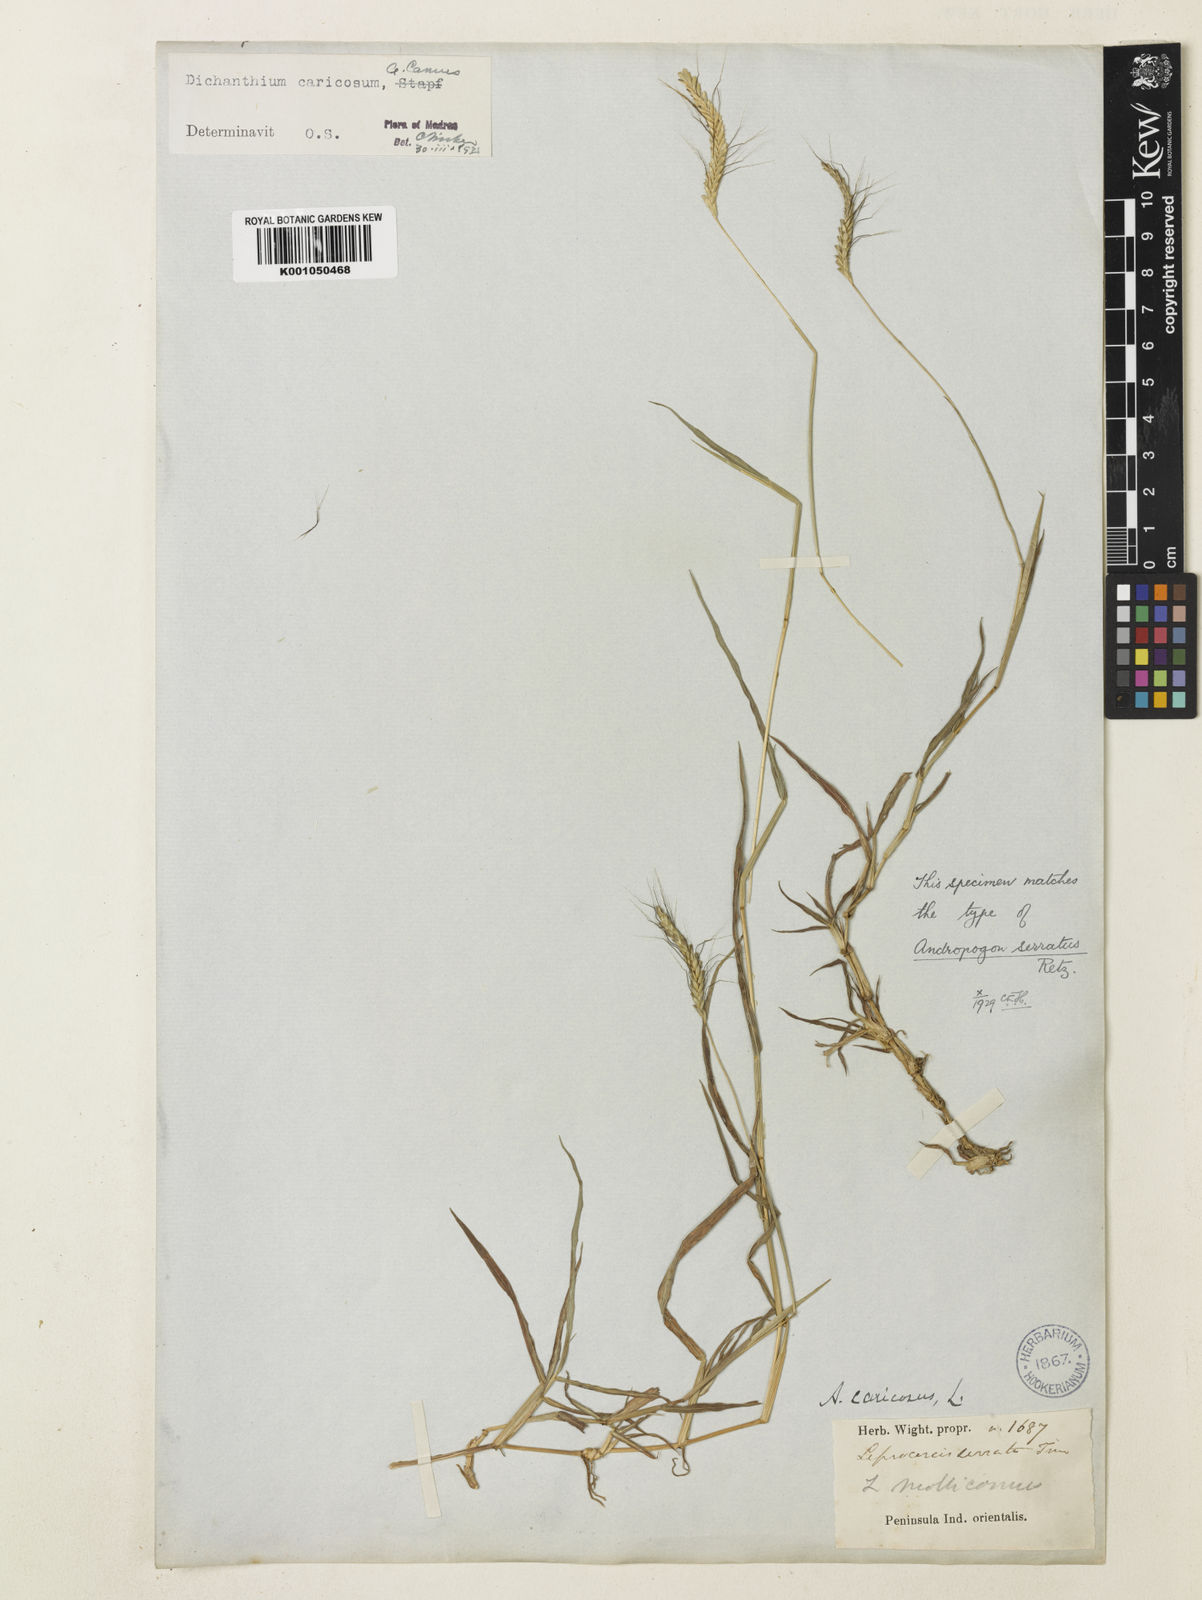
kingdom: Plantae
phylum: Tracheophyta
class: Liliopsida
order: Poales
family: Poaceae
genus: Dichanthium
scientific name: Dichanthium caricosum
